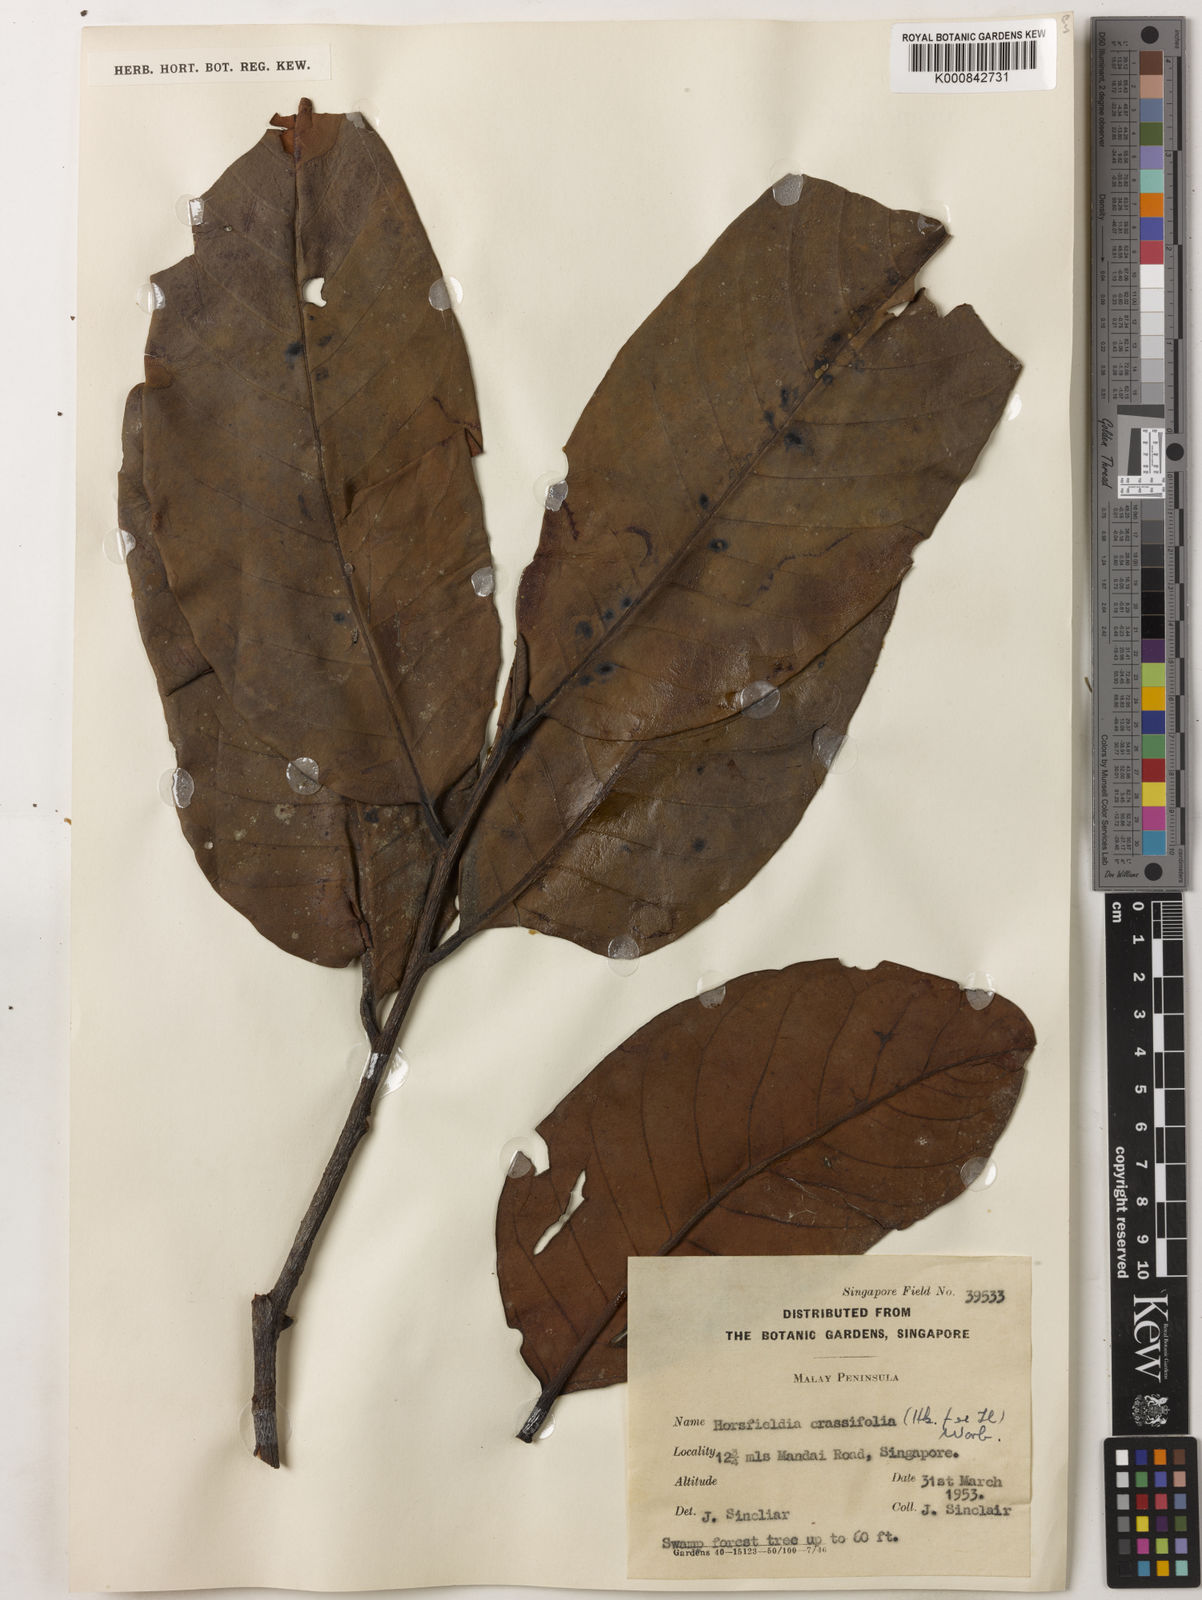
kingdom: Plantae
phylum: Tracheophyta
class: Magnoliopsida
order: Magnoliales
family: Myristicaceae
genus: Horsfieldia
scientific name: Horsfieldia crassifolia
